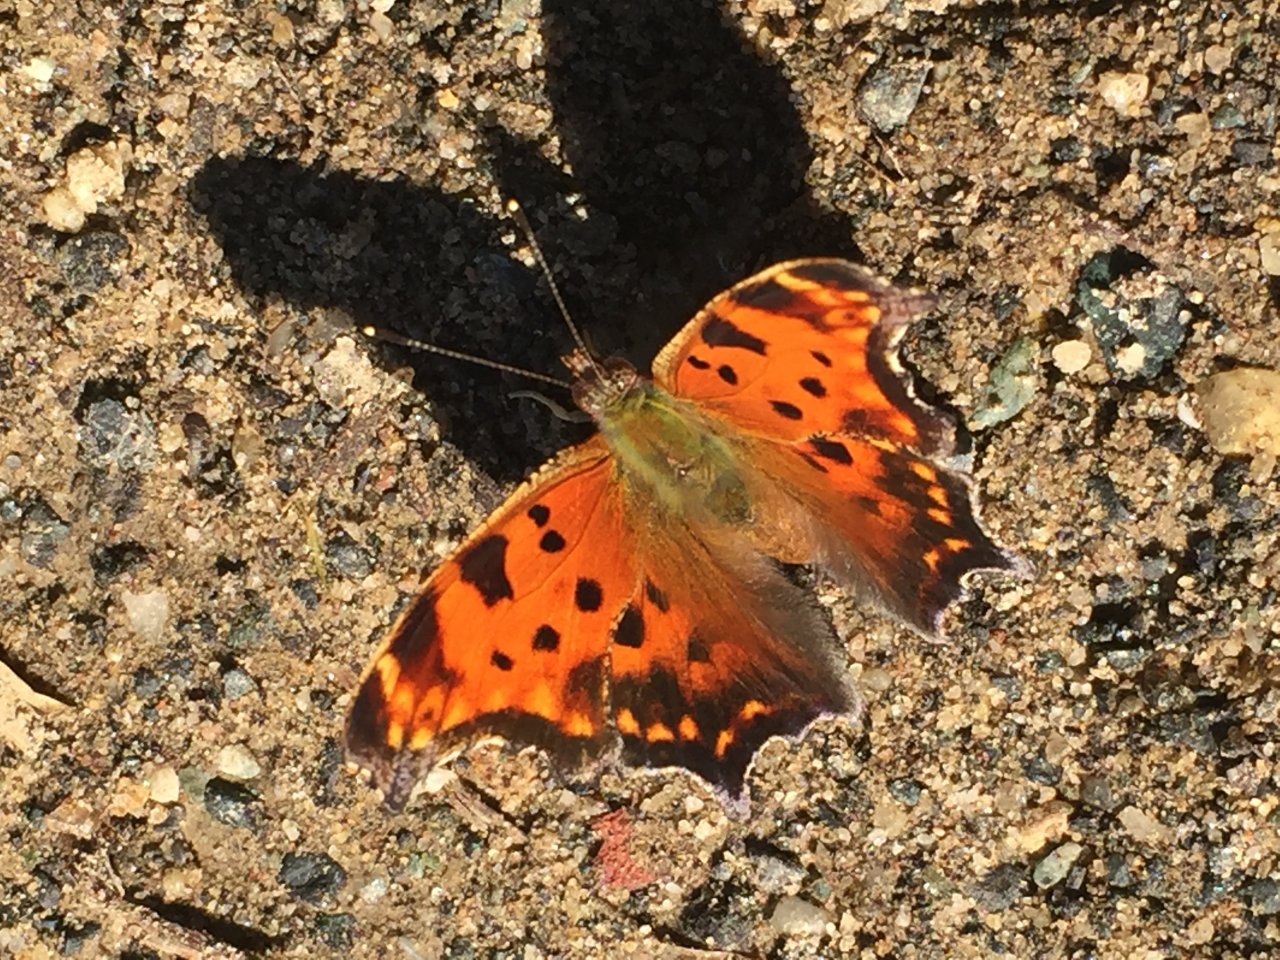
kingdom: Animalia
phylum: Arthropoda
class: Insecta
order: Lepidoptera
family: Nymphalidae
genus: Polygonia
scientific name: Polygonia comma
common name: Eastern Comma
